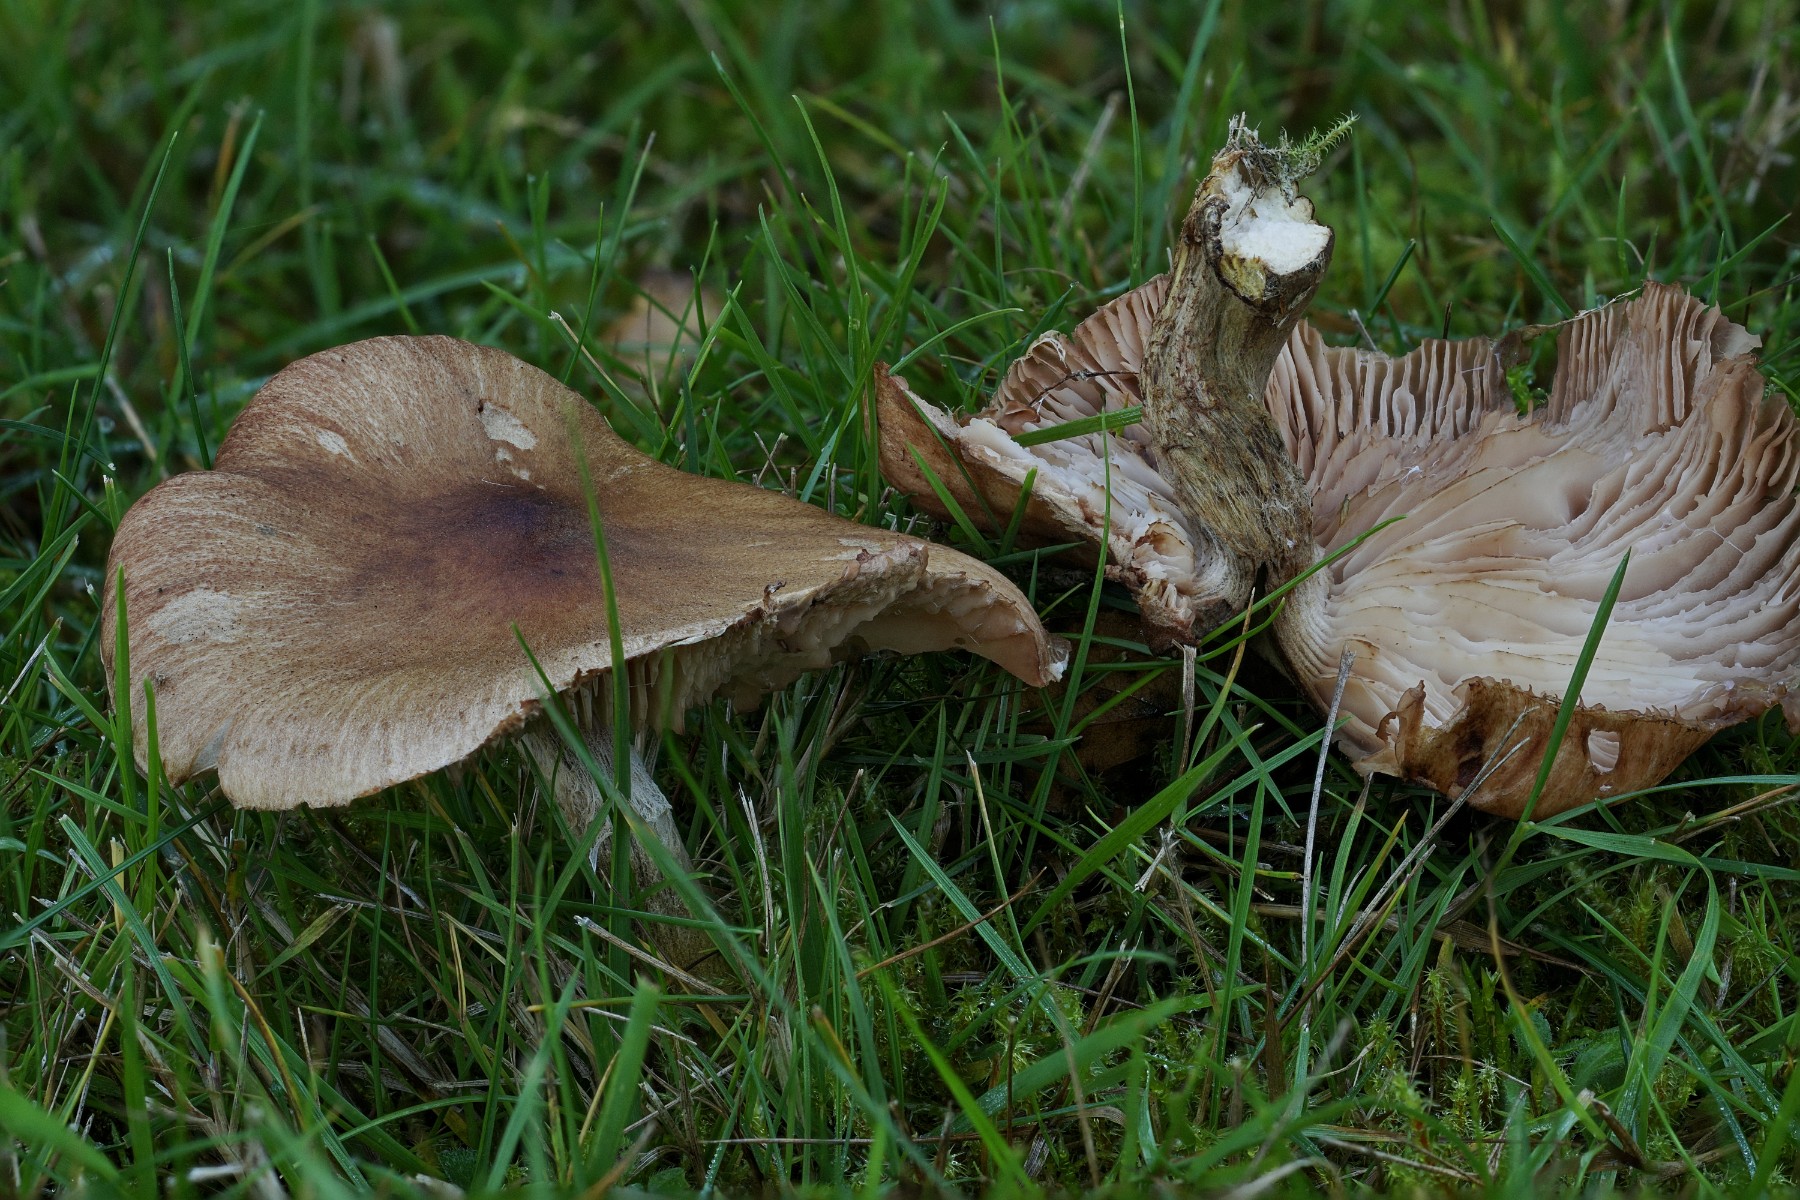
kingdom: Fungi
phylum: Basidiomycota
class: Agaricomycetes
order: Agaricales
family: Physalacriaceae
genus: Armillaria
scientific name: Armillaria
